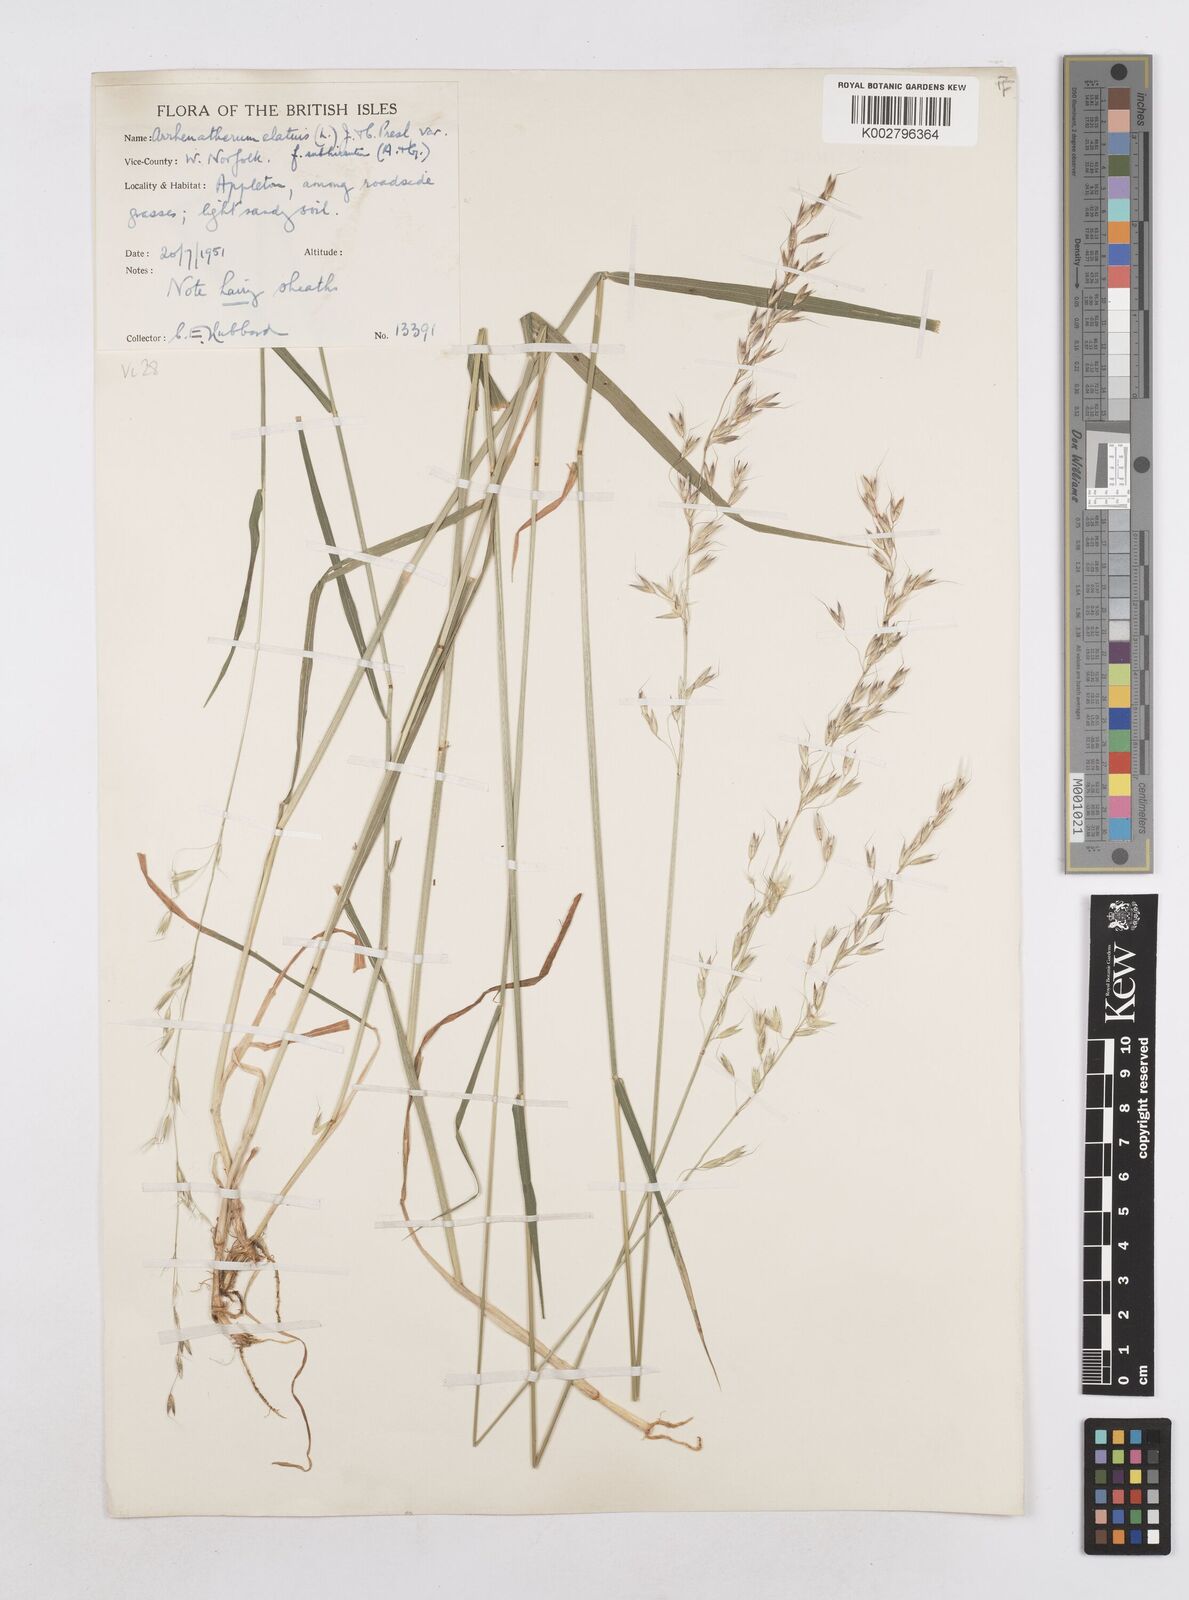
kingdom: Plantae
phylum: Tracheophyta
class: Liliopsida
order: Poales
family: Poaceae
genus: Arrhenatherum
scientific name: Arrhenatherum elatius
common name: Tall oatgrass
